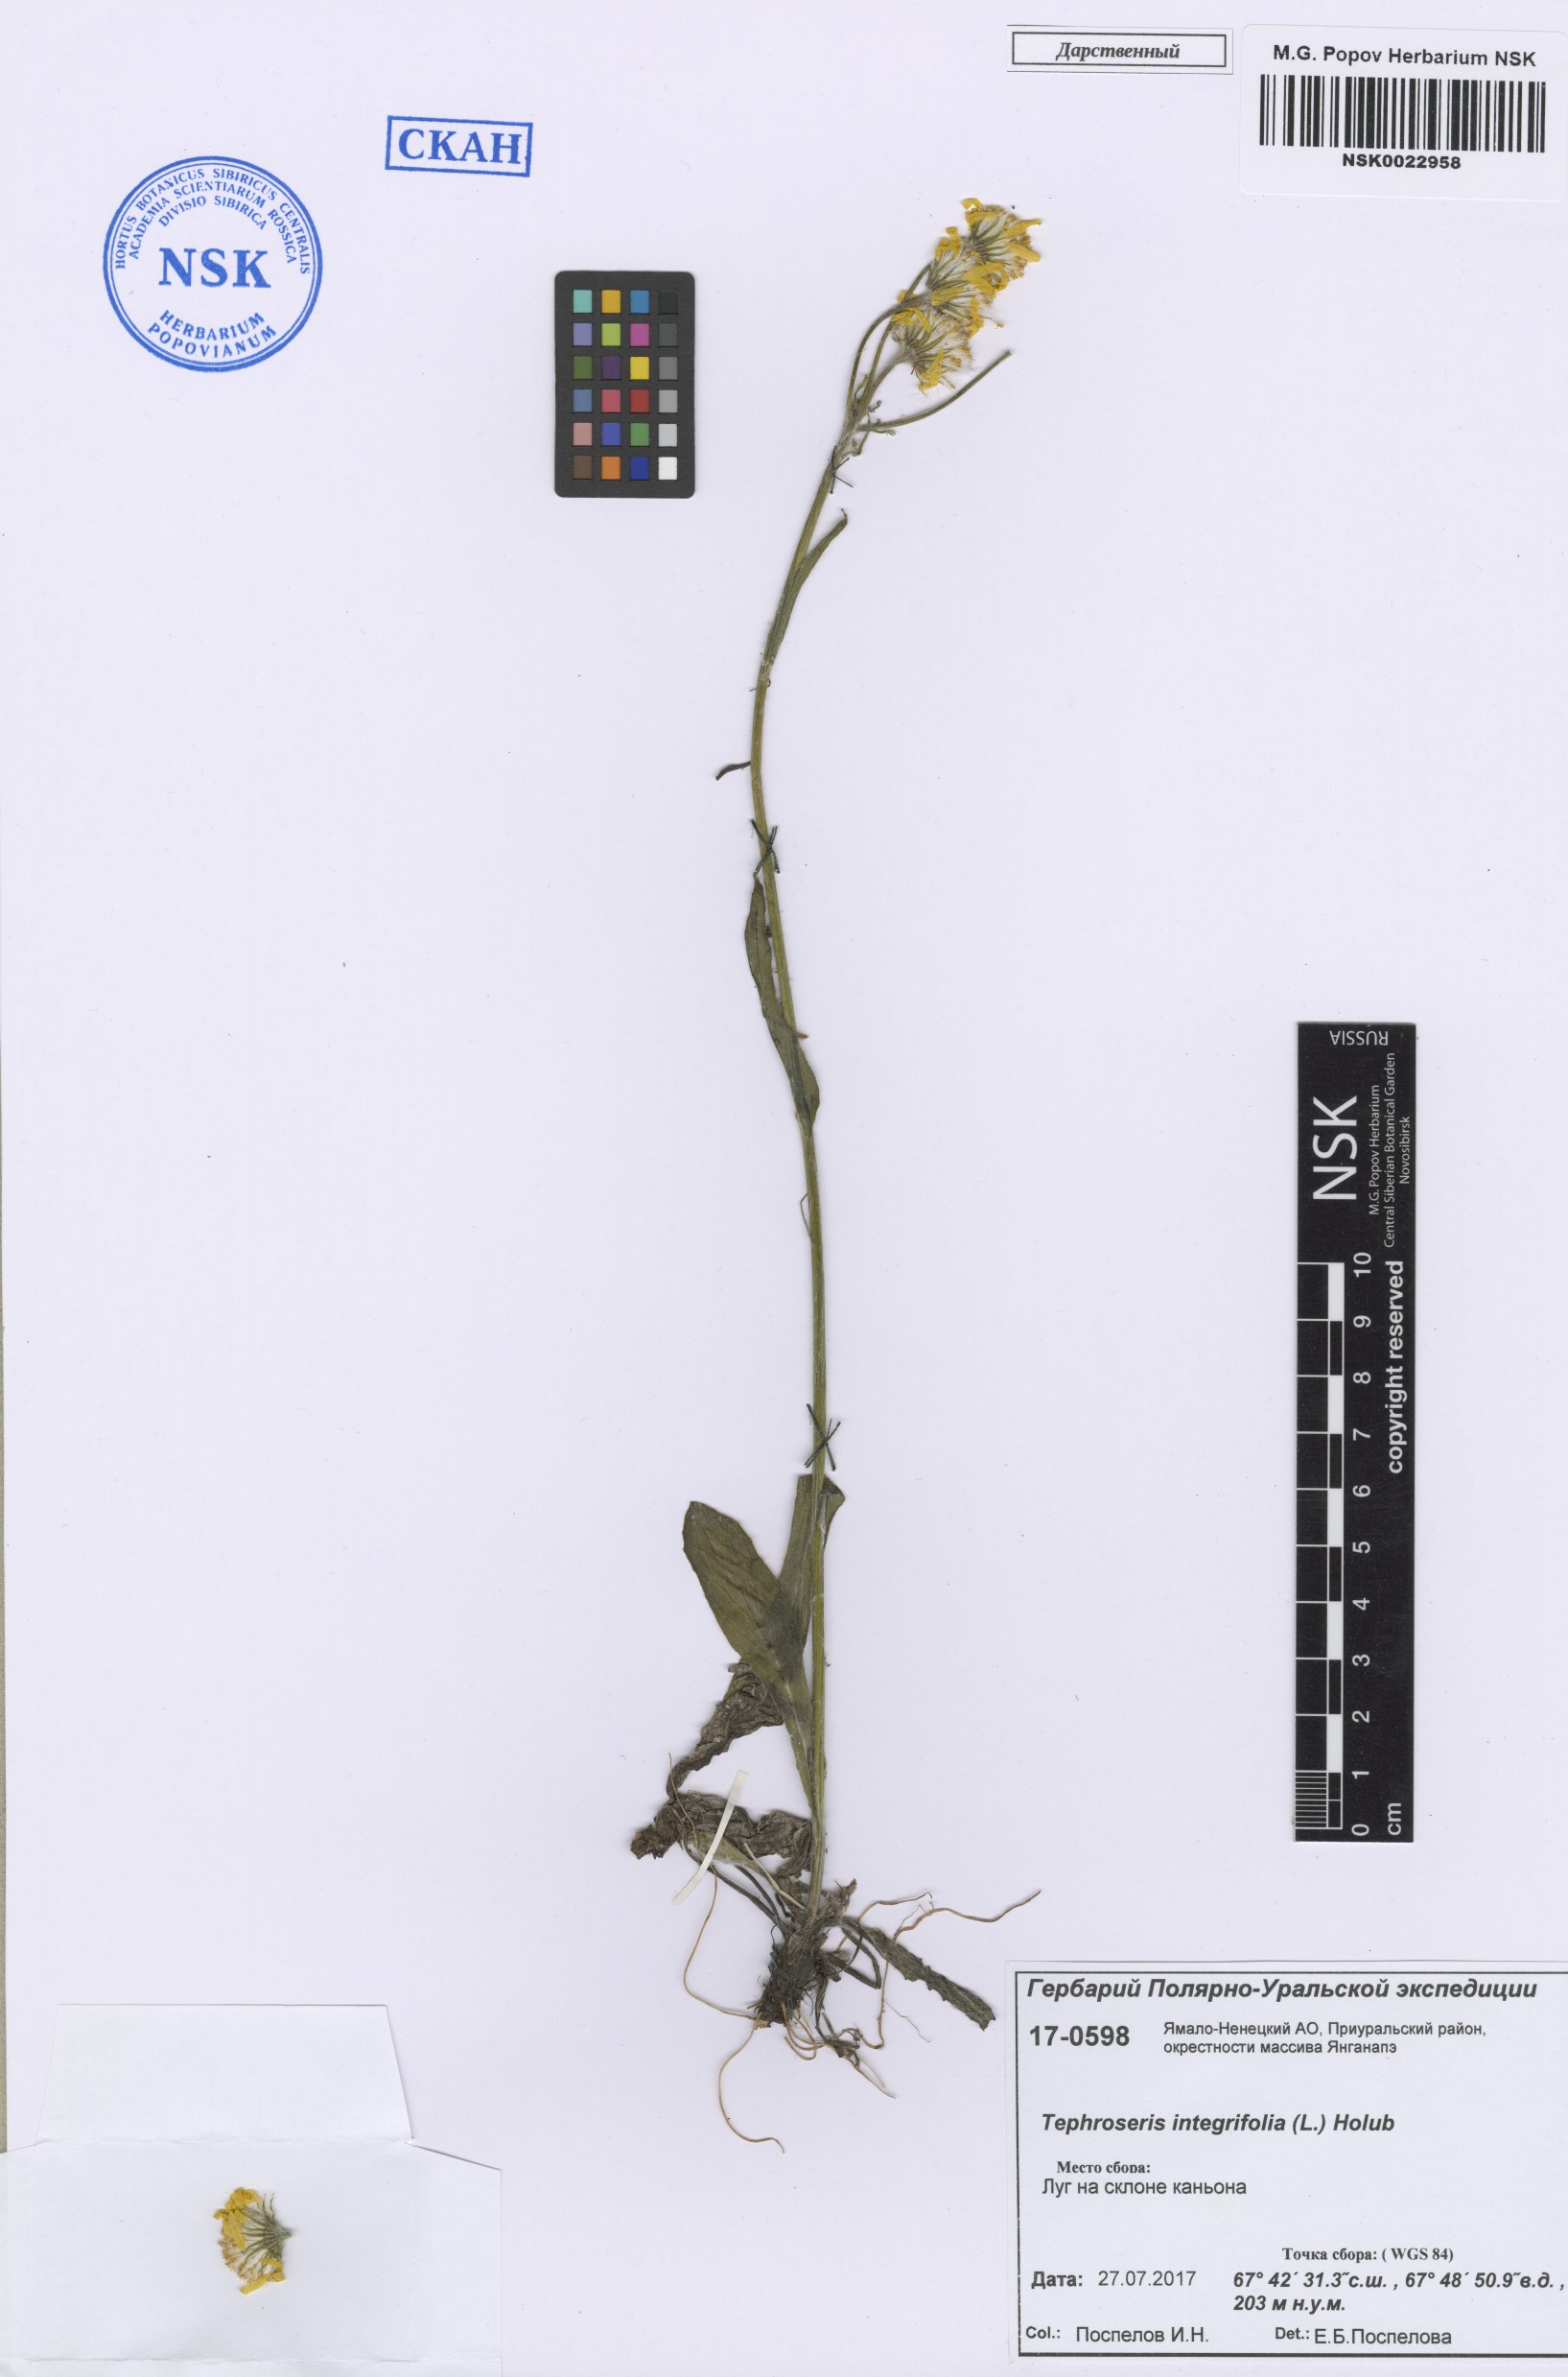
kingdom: Plantae
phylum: Tracheophyta
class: Magnoliopsida
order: Asterales
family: Asteraceae
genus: Tephroseris
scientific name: Tephroseris integrifolia
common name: Field fleawort
